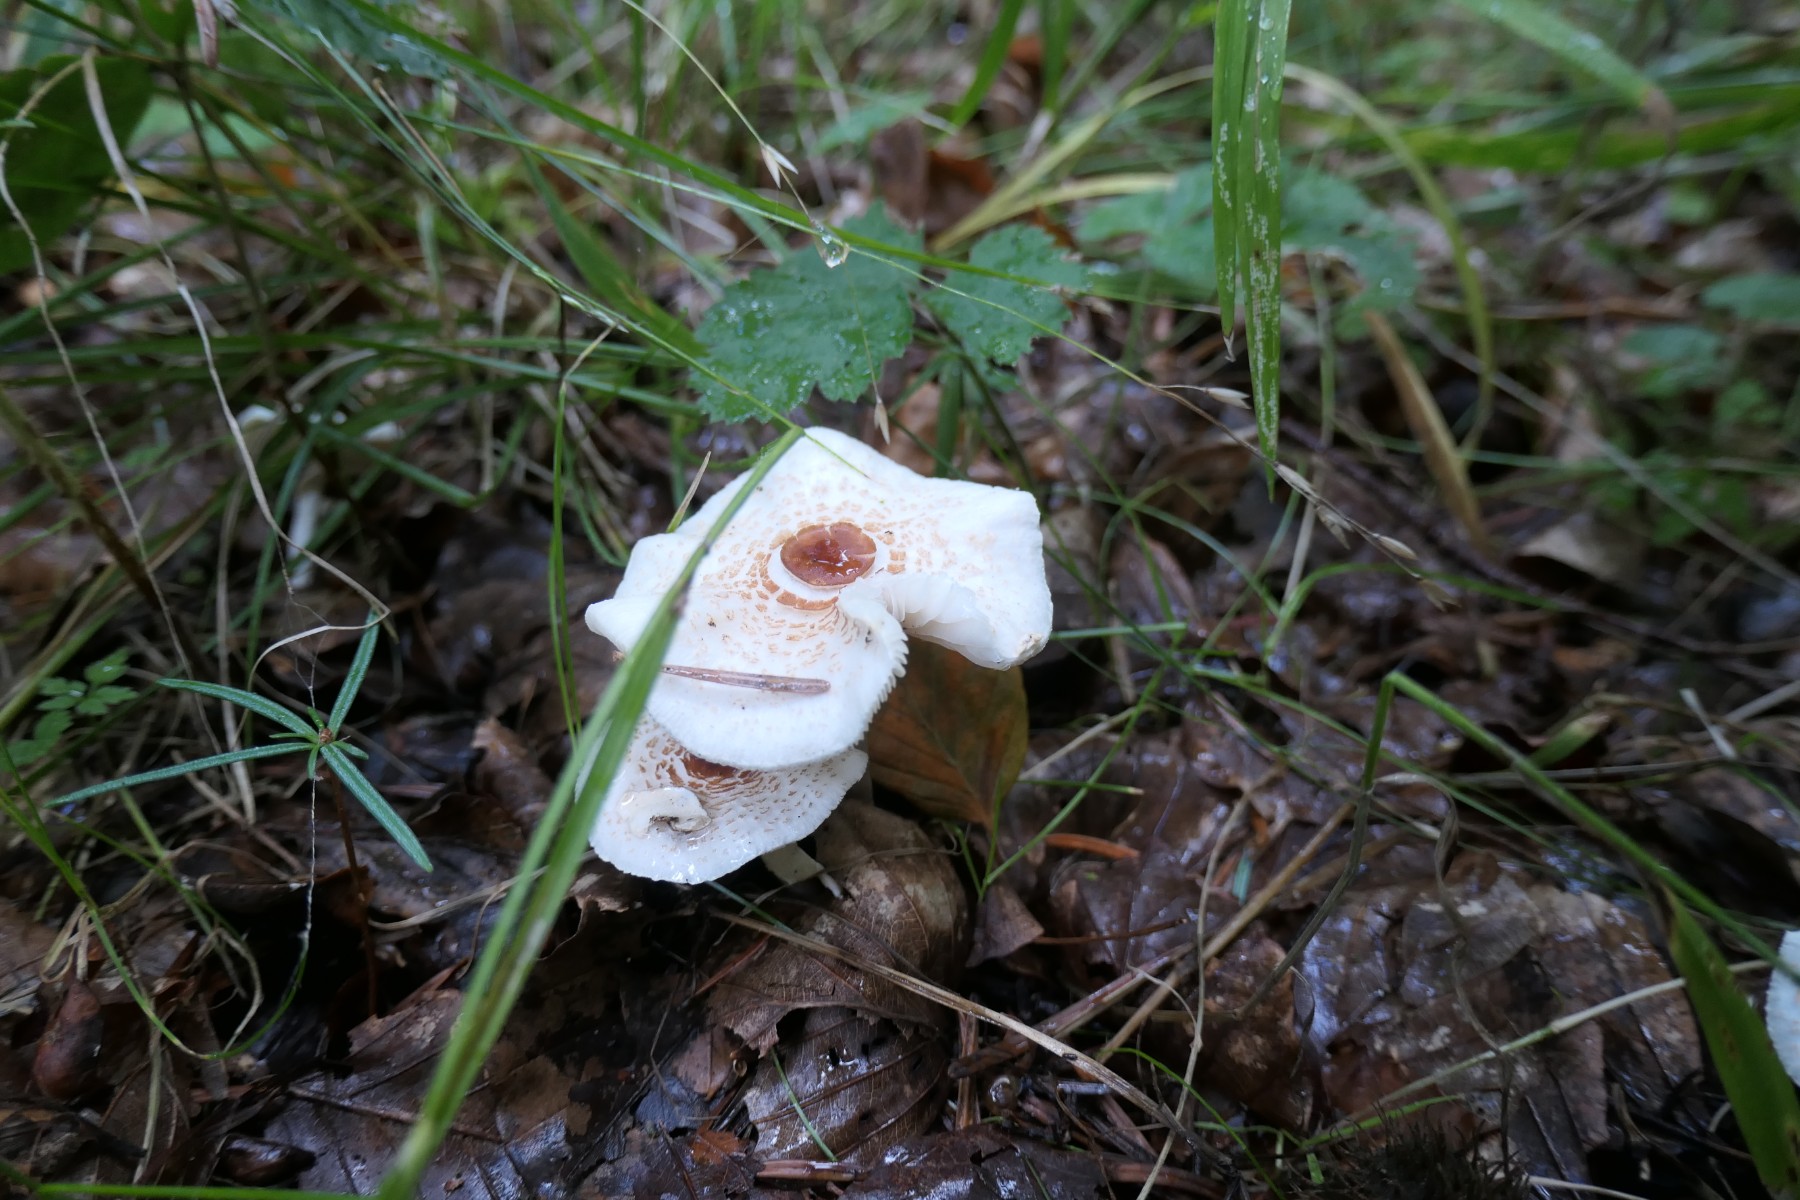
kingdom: Fungi
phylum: Basidiomycota
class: Agaricomycetes
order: Agaricales
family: Agaricaceae
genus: Lepiota
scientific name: Lepiota cristata
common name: stinkende parasolhat
